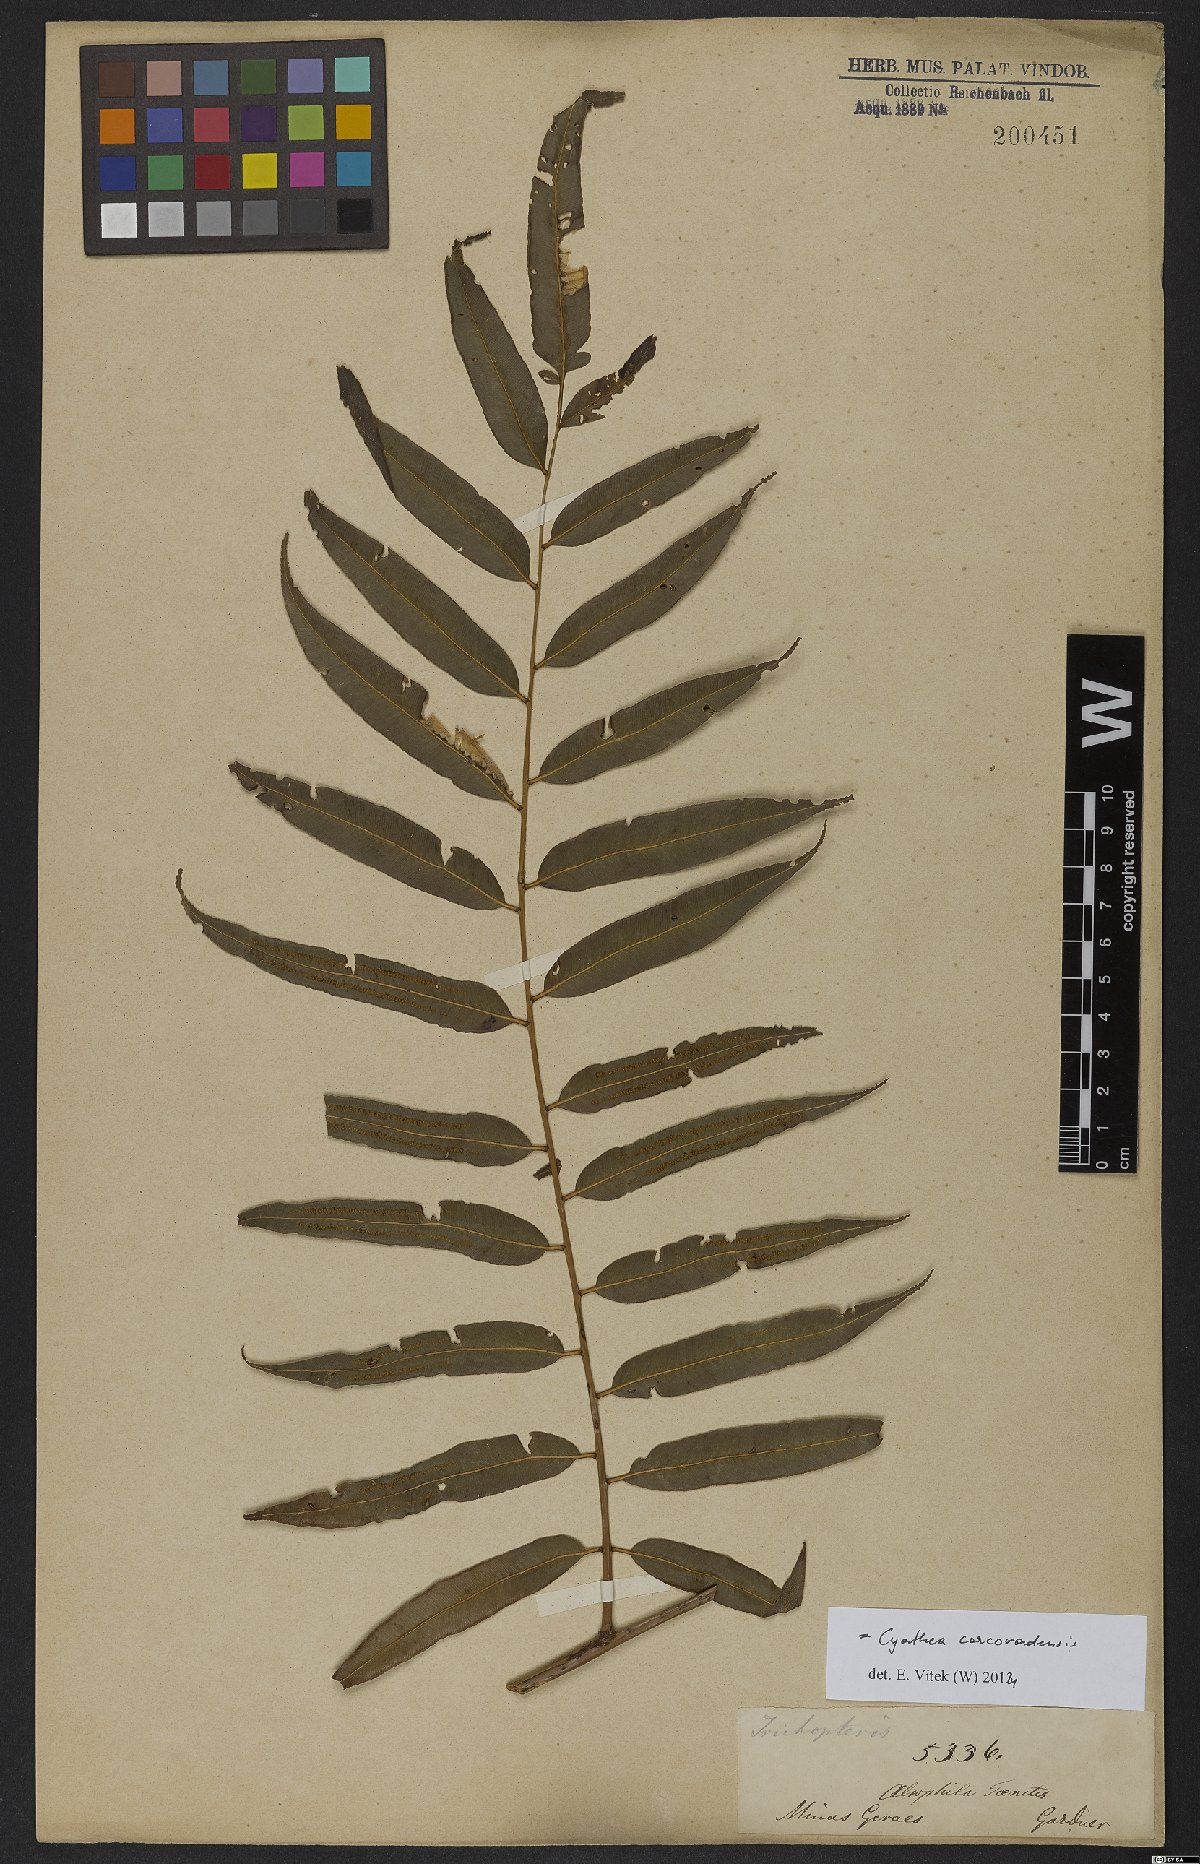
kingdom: Plantae
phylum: Tracheophyta
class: Polypodiopsida
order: Cyatheales
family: Cyatheaceae
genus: Cyathea
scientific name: Cyathea corcovadensis
